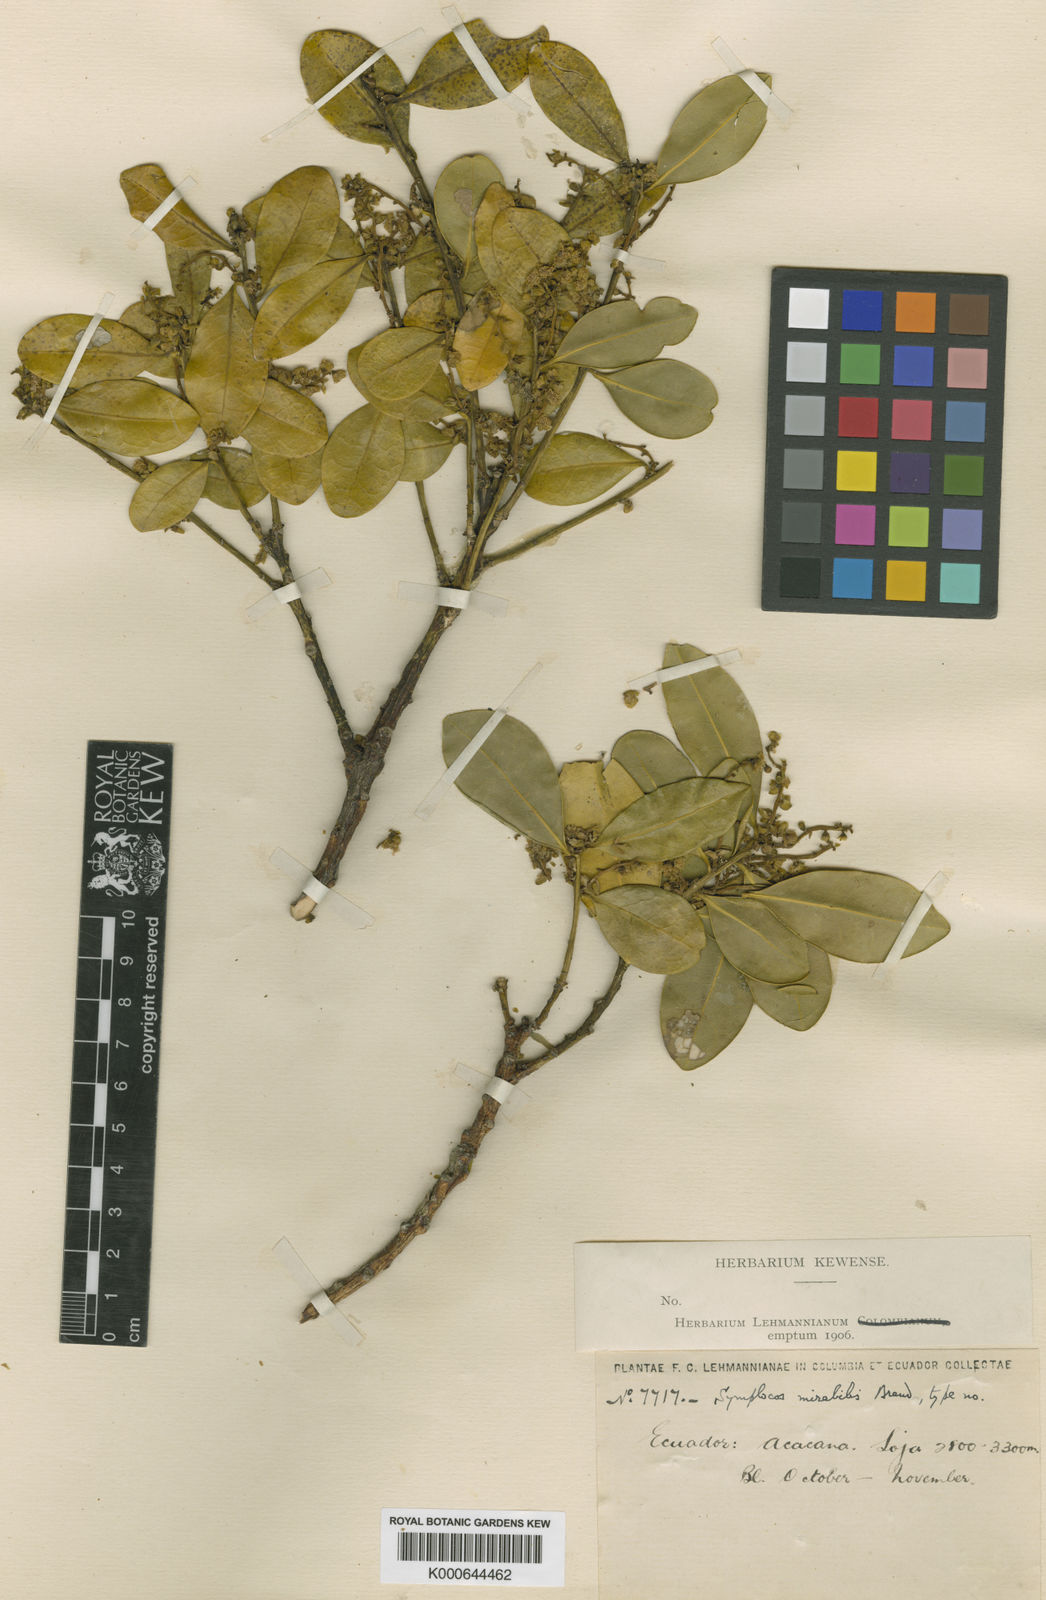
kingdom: Plantae
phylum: Tracheophyta
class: Magnoliopsida
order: Ericales
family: Symplocaceae
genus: Symplocos
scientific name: Symplocos bogotensis
